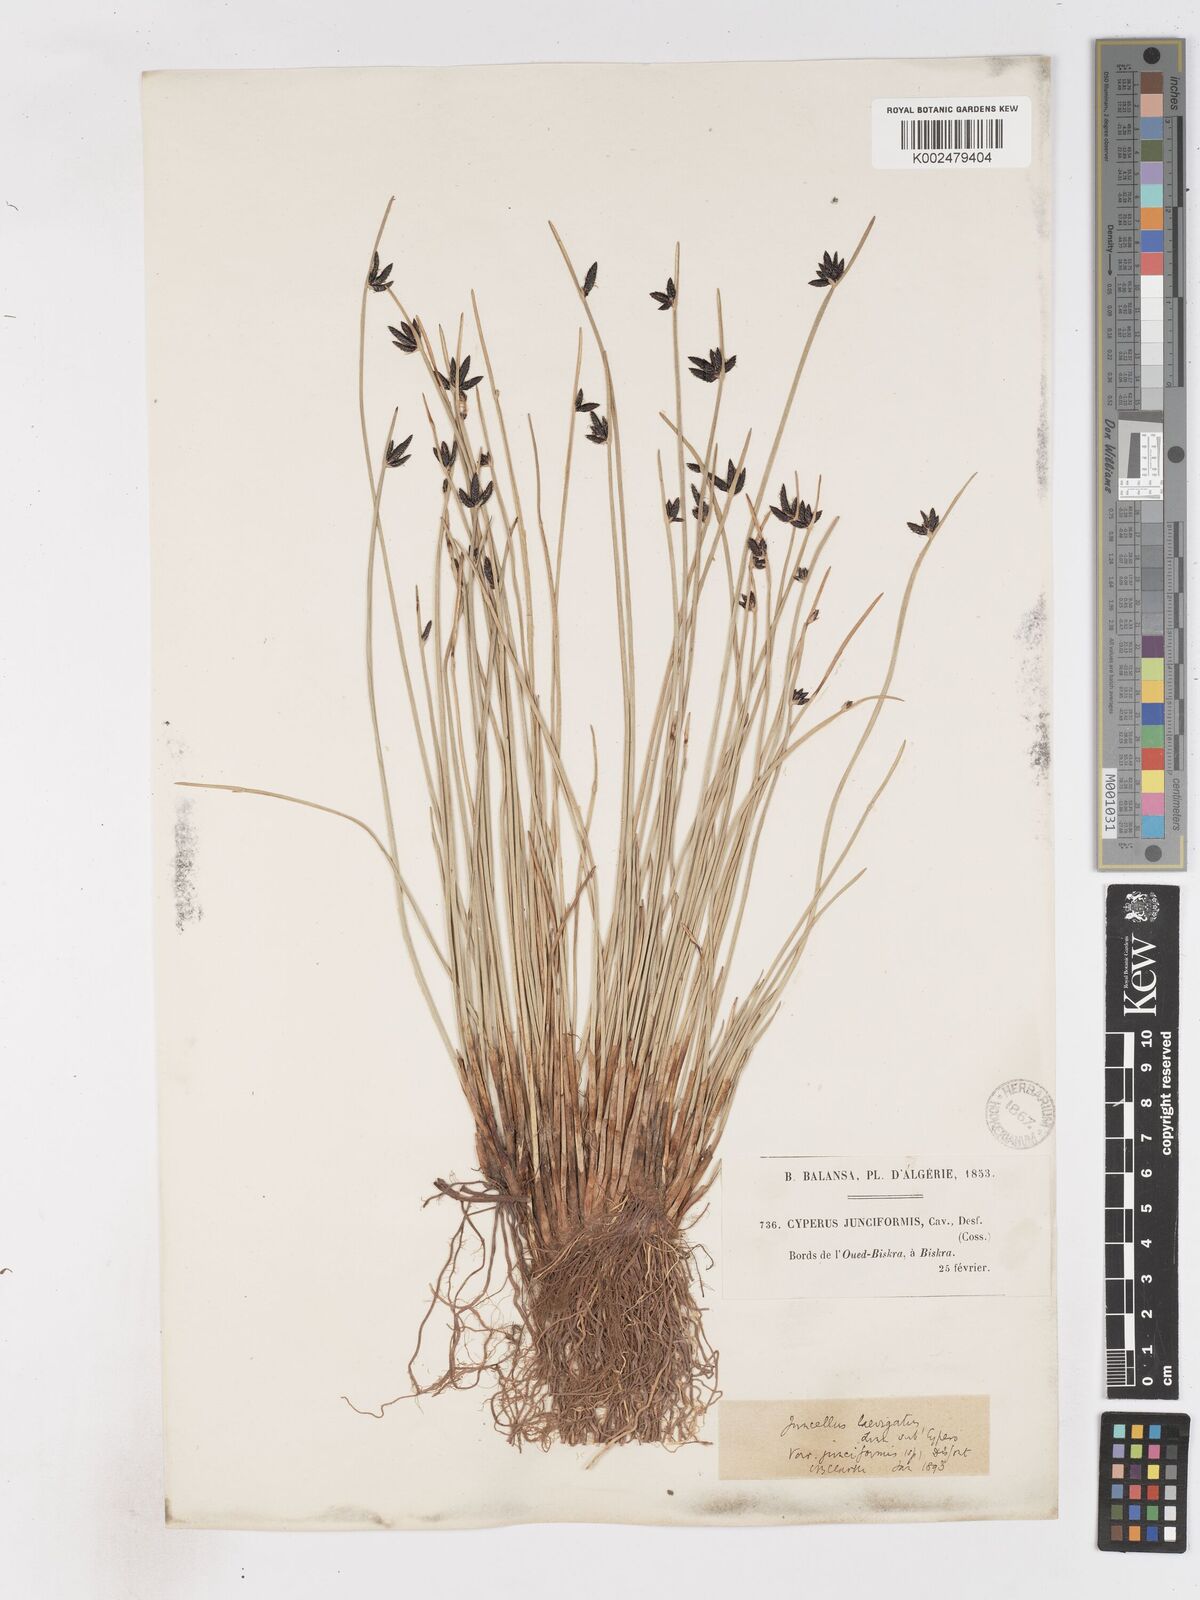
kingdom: Plantae
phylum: Tracheophyta
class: Liliopsida
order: Poales
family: Cyperaceae
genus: Cyperus
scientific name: Cyperus laevigatus
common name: Smooth flat sedge
